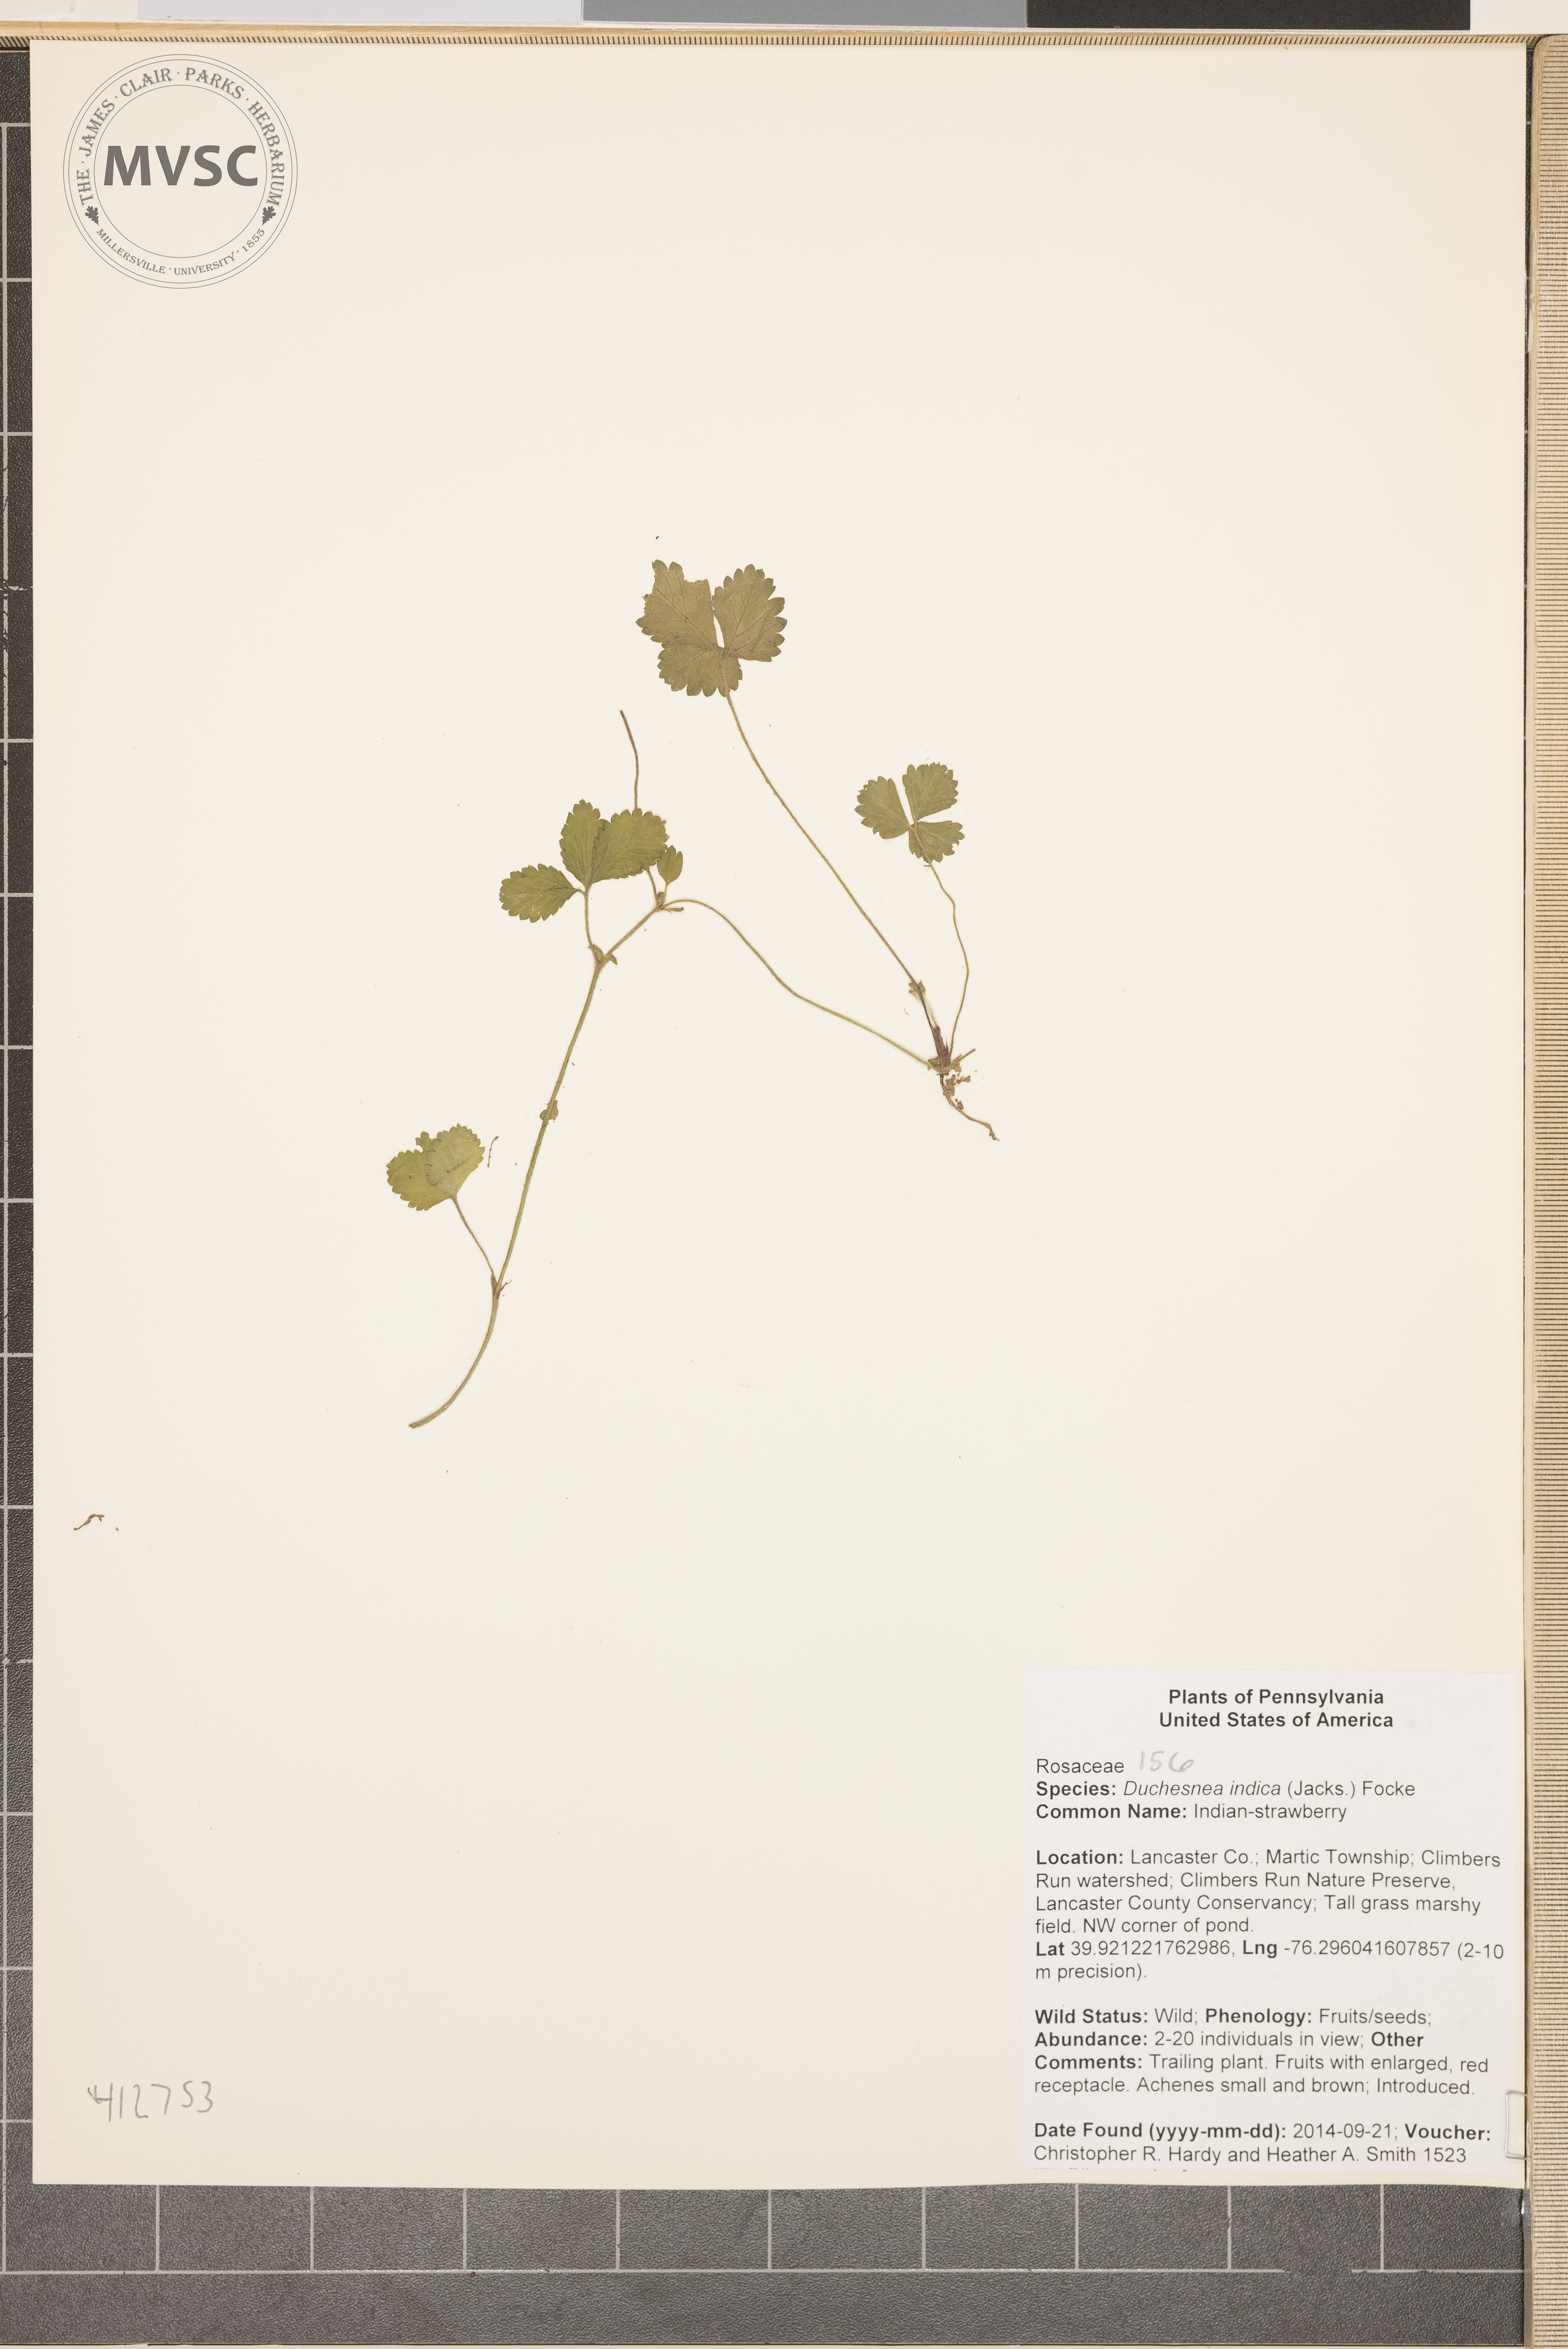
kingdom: Plantae
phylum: Tracheophyta
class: Magnoliopsida
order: Rosales
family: Rosaceae
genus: Potentilla
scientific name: Potentilla indica
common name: Indian-strawberry
